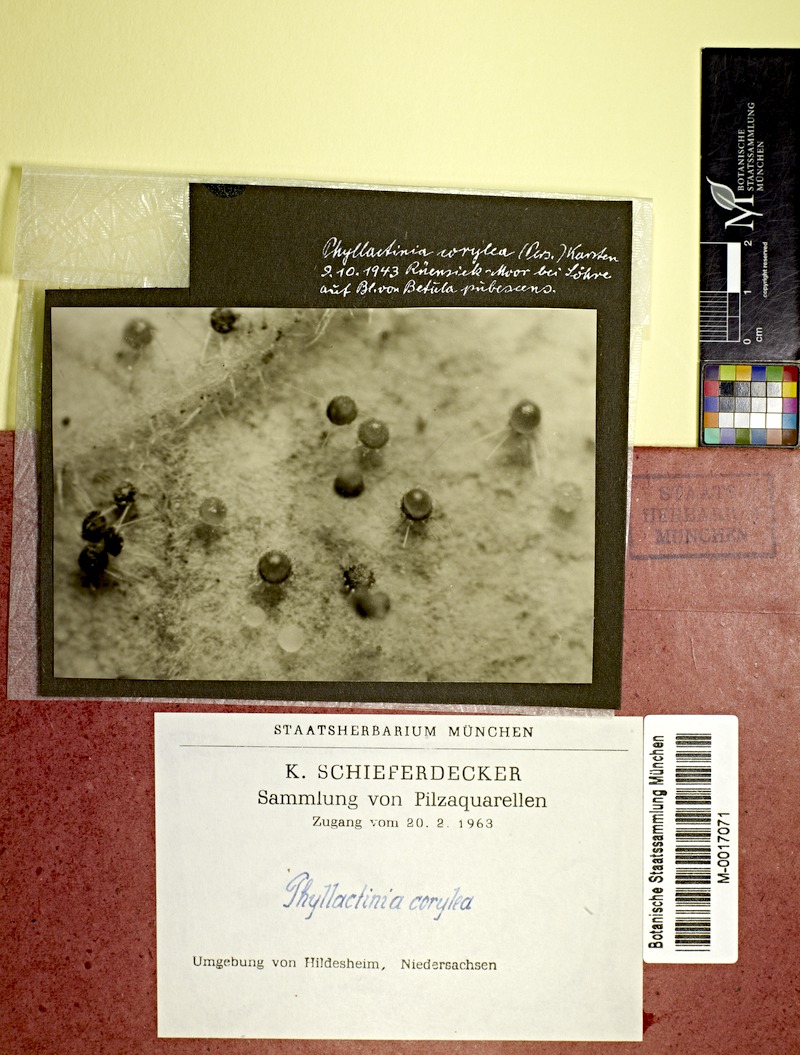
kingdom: Fungi
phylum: Ascomycota
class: Leotiomycetes
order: Helotiales
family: Erysiphaceae
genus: Phyllactinia
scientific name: Phyllactinia guttata
